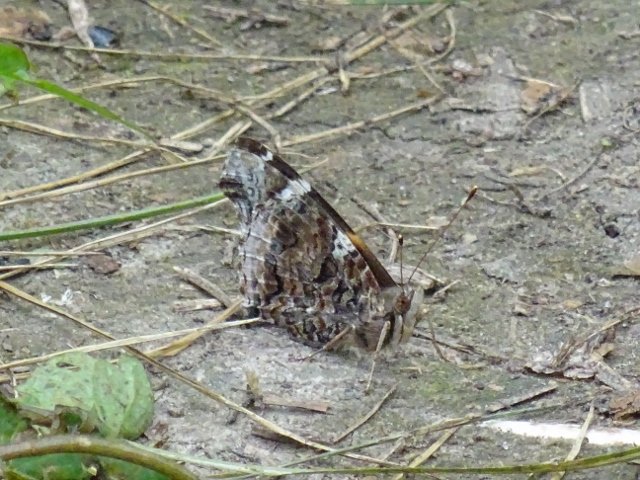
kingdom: Animalia
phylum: Arthropoda
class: Insecta
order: Lepidoptera
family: Nymphalidae
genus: Vanessa
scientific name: Vanessa atalanta
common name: Red Admiral
